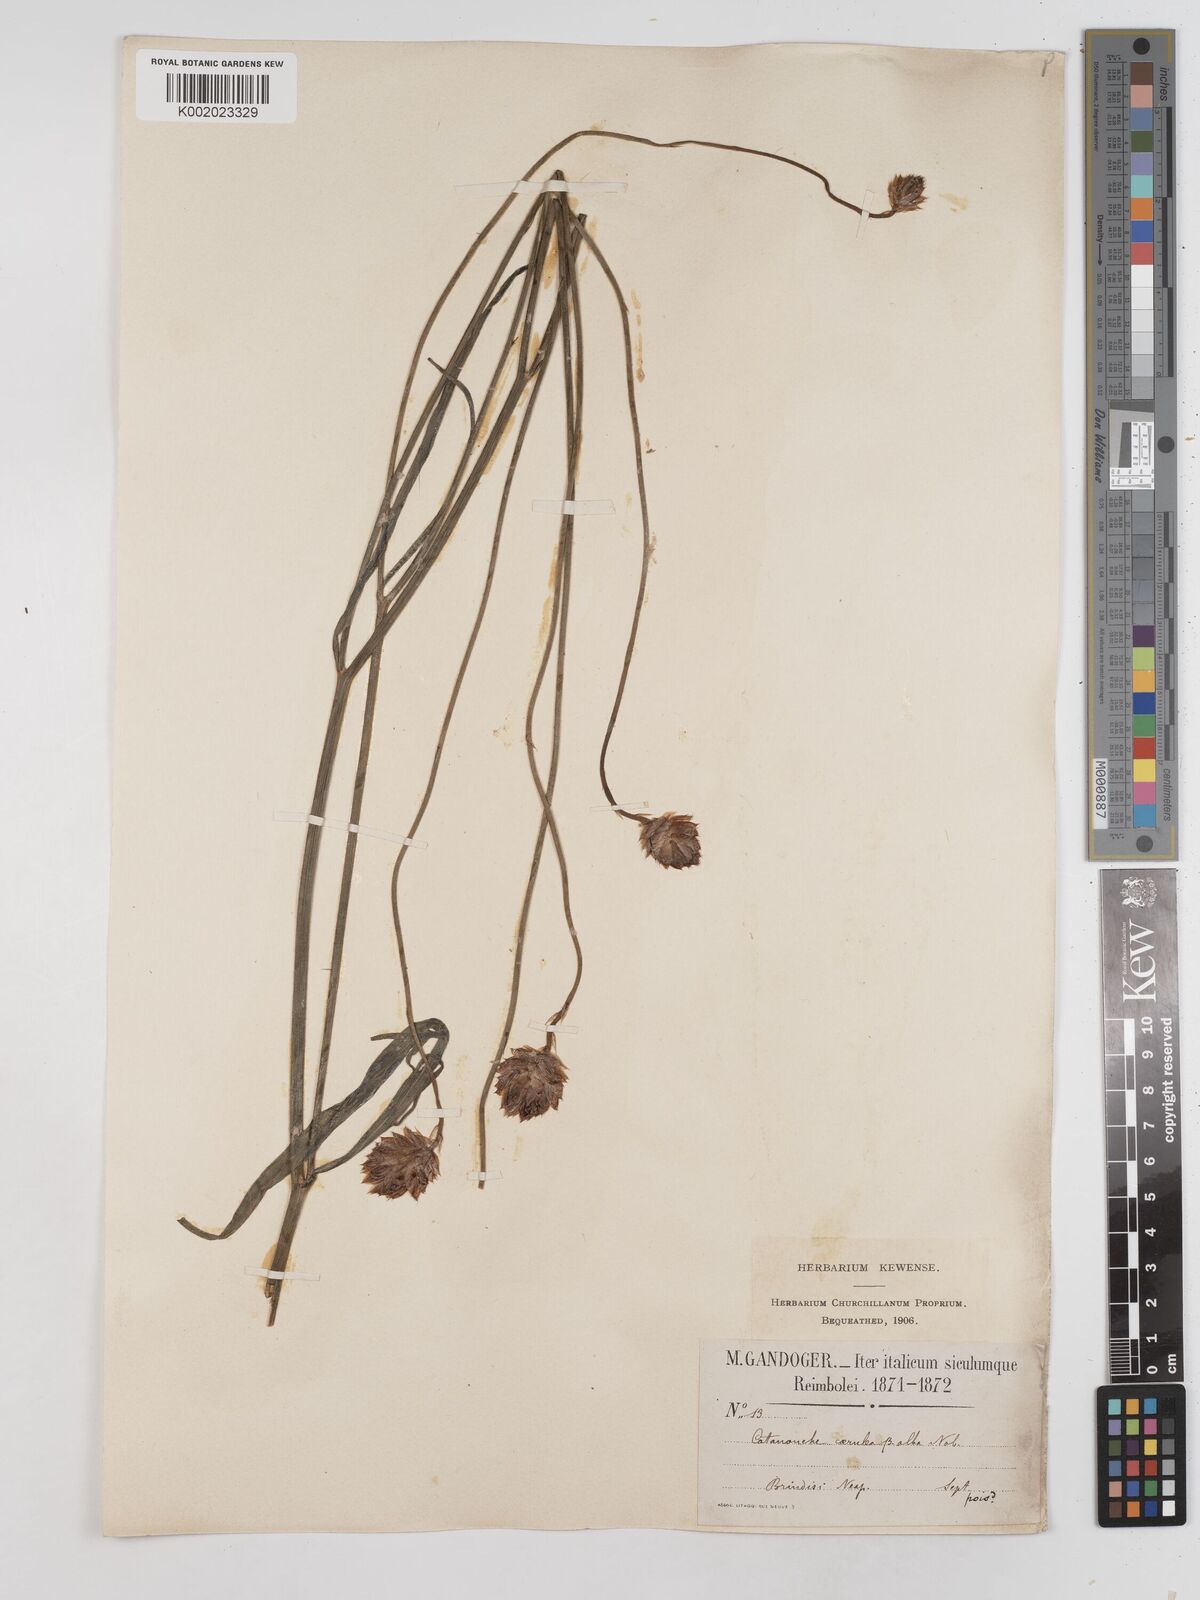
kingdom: Plantae
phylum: Tracheophyta
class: Magnoliopsida
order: Asterales
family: Asteraceae
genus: Catananche
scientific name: Catananche caerulea
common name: Blue cupidone
